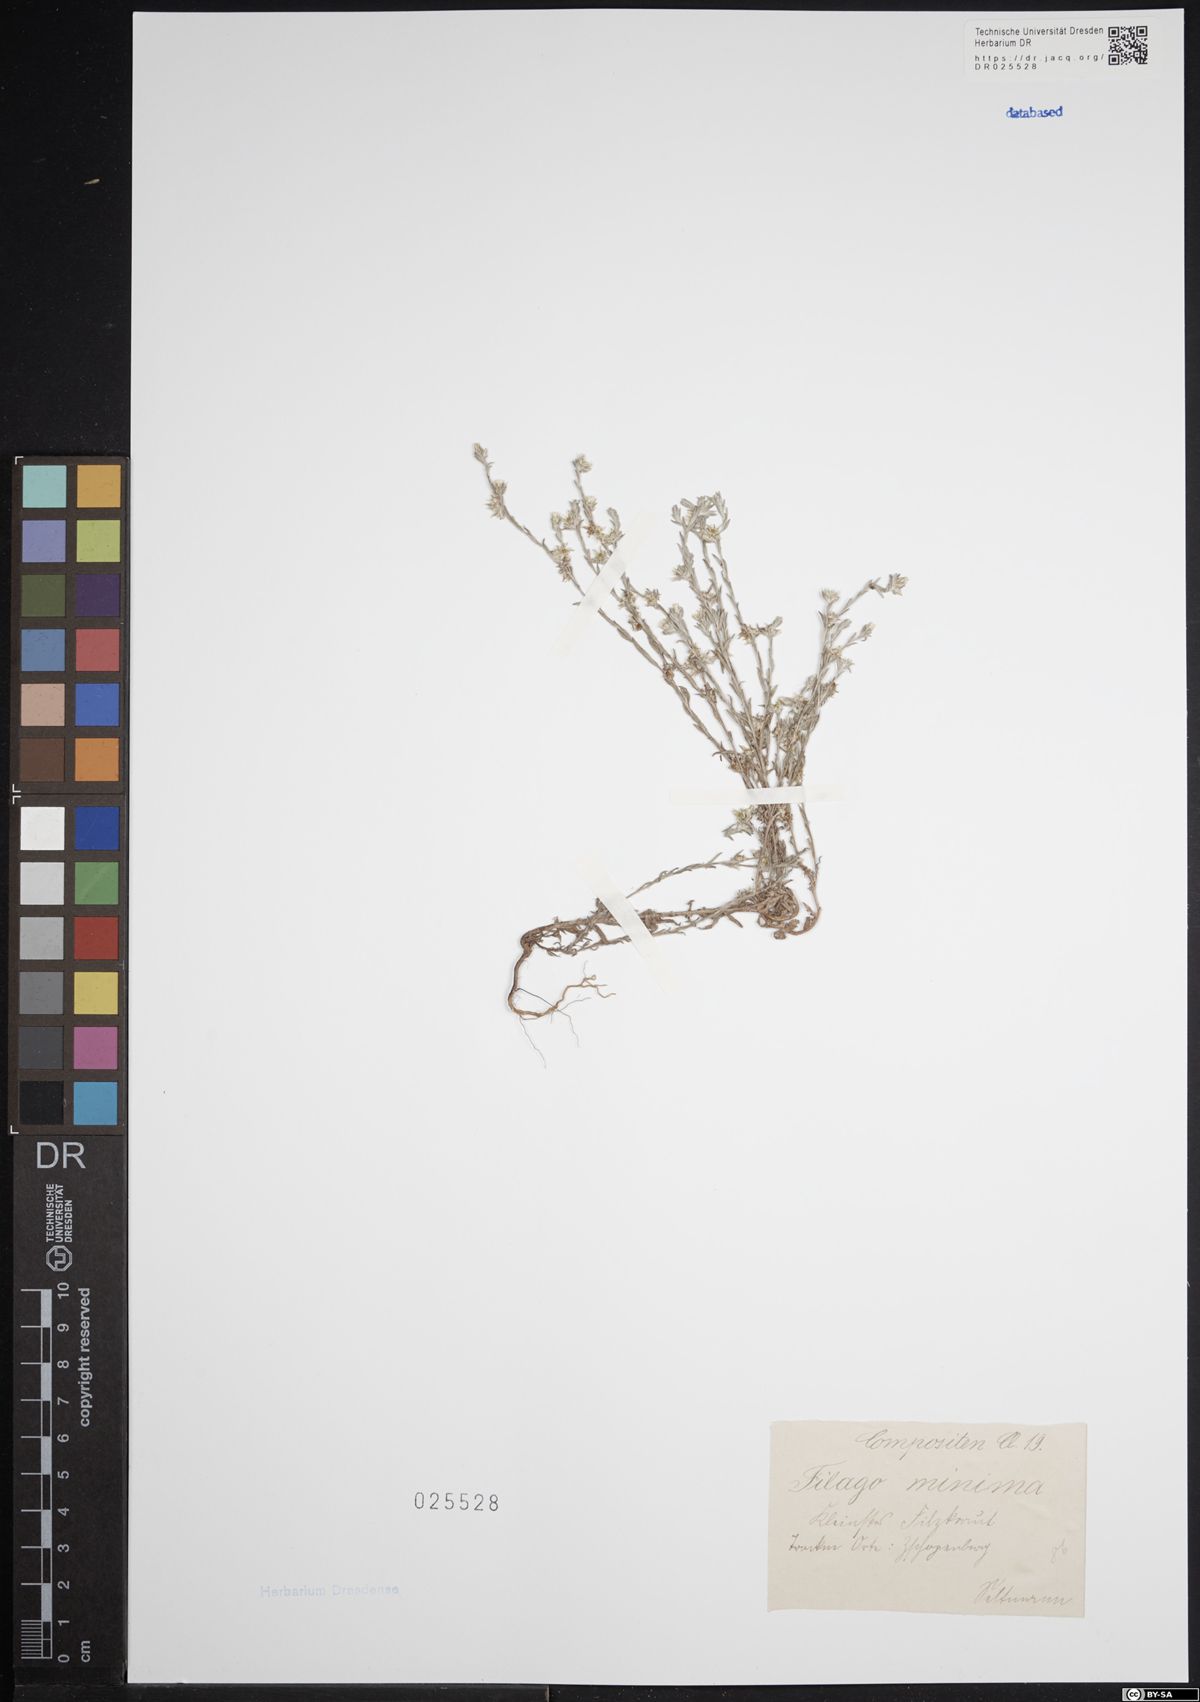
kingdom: Plantae
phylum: Tracheophyta
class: Magnoliopsida
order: Asterales
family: Asteraceae
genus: Logfia
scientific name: Logfia minima
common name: Little cottonrose
